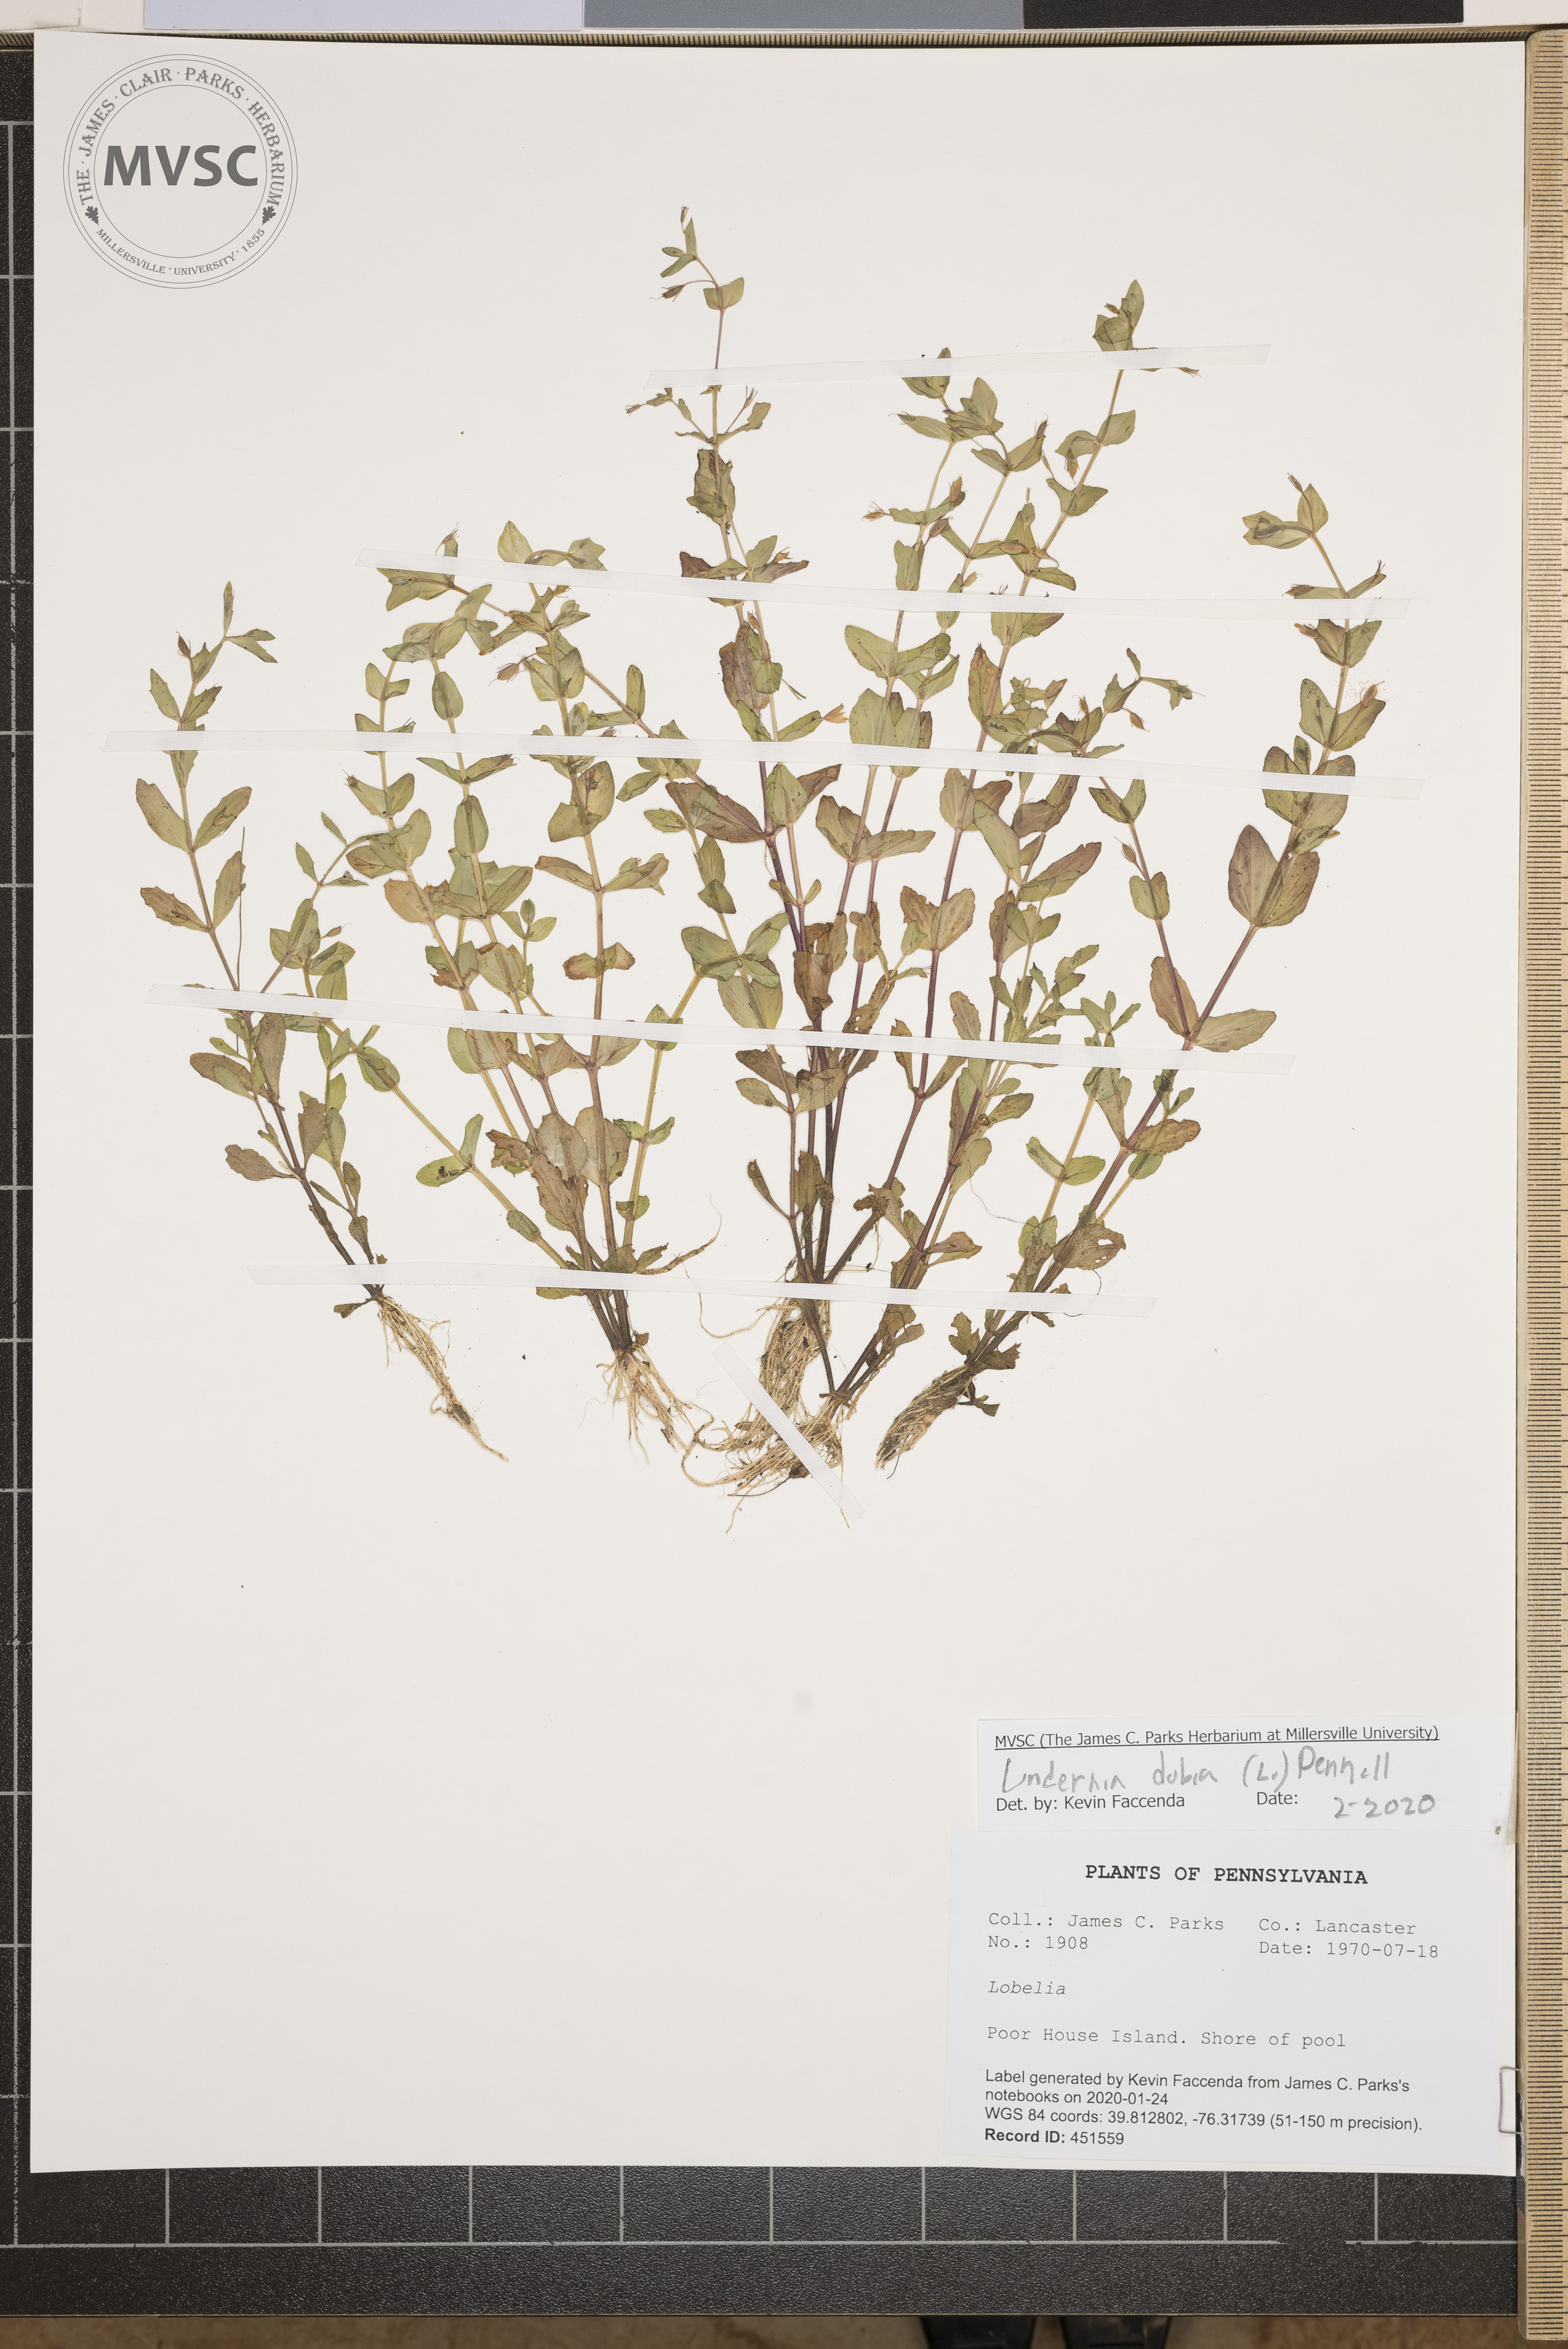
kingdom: Plantae
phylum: Tracheophyta
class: Magnoliopsida
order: Lamiales
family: Linderniaceae
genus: Lindernia
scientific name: Lindernia dubia
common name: Annual false pimpernel
